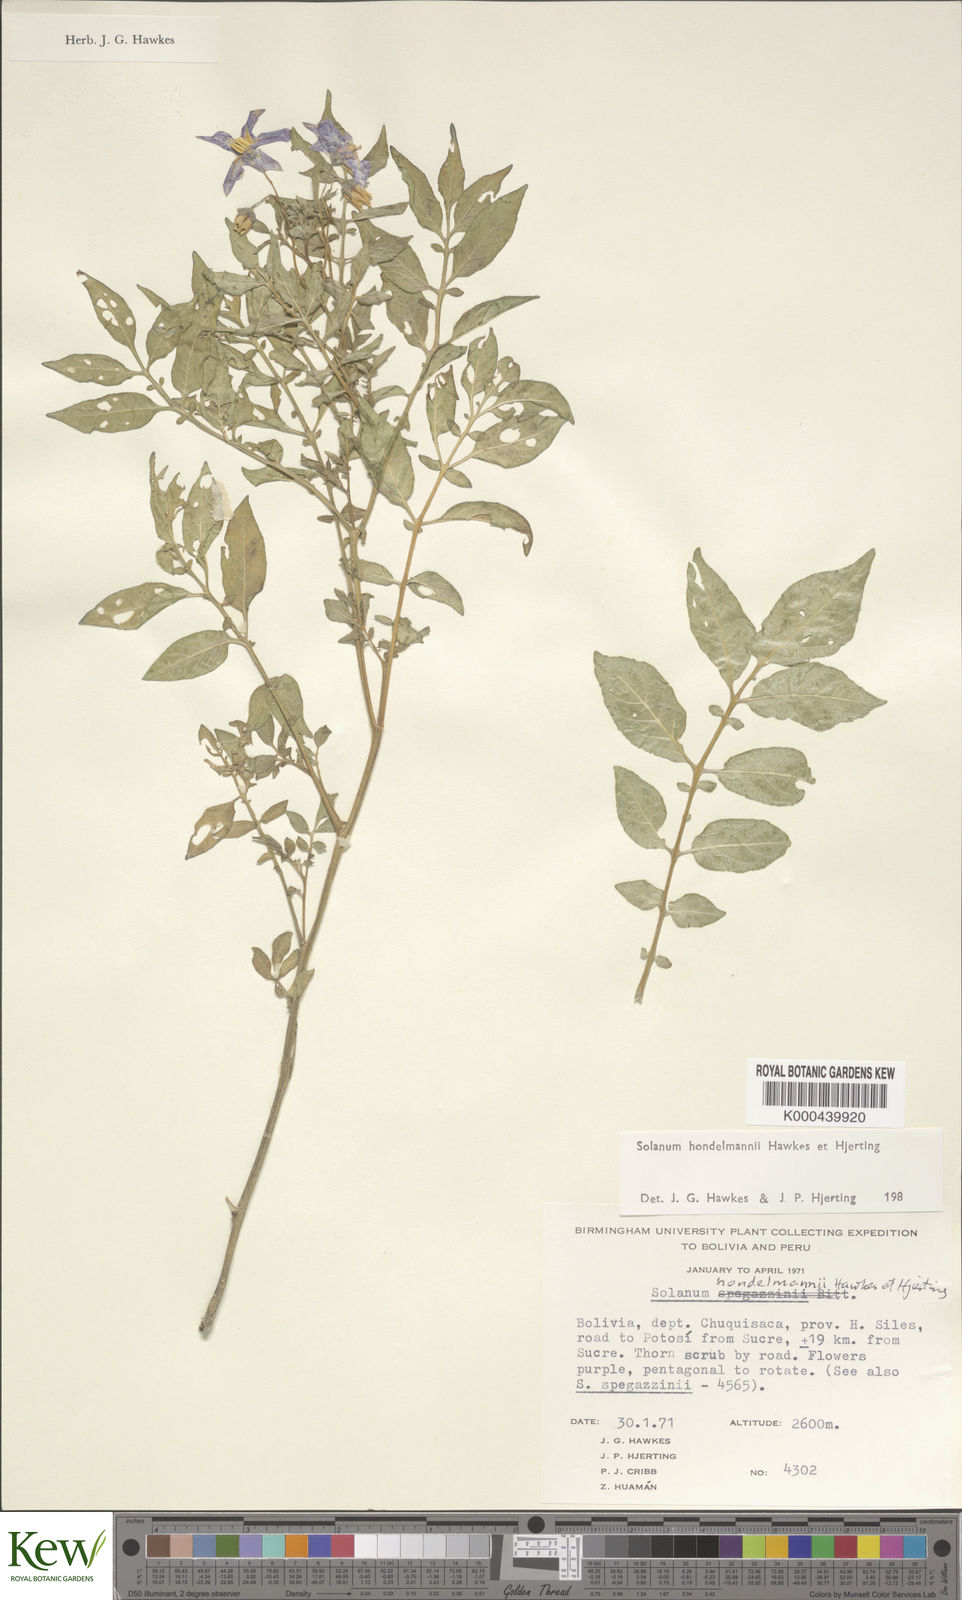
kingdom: Plantae
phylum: Tracheophyta
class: Magnoliopsida
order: Solanales
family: Solanaceae
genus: Solanum
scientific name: Solanum brevicaule
